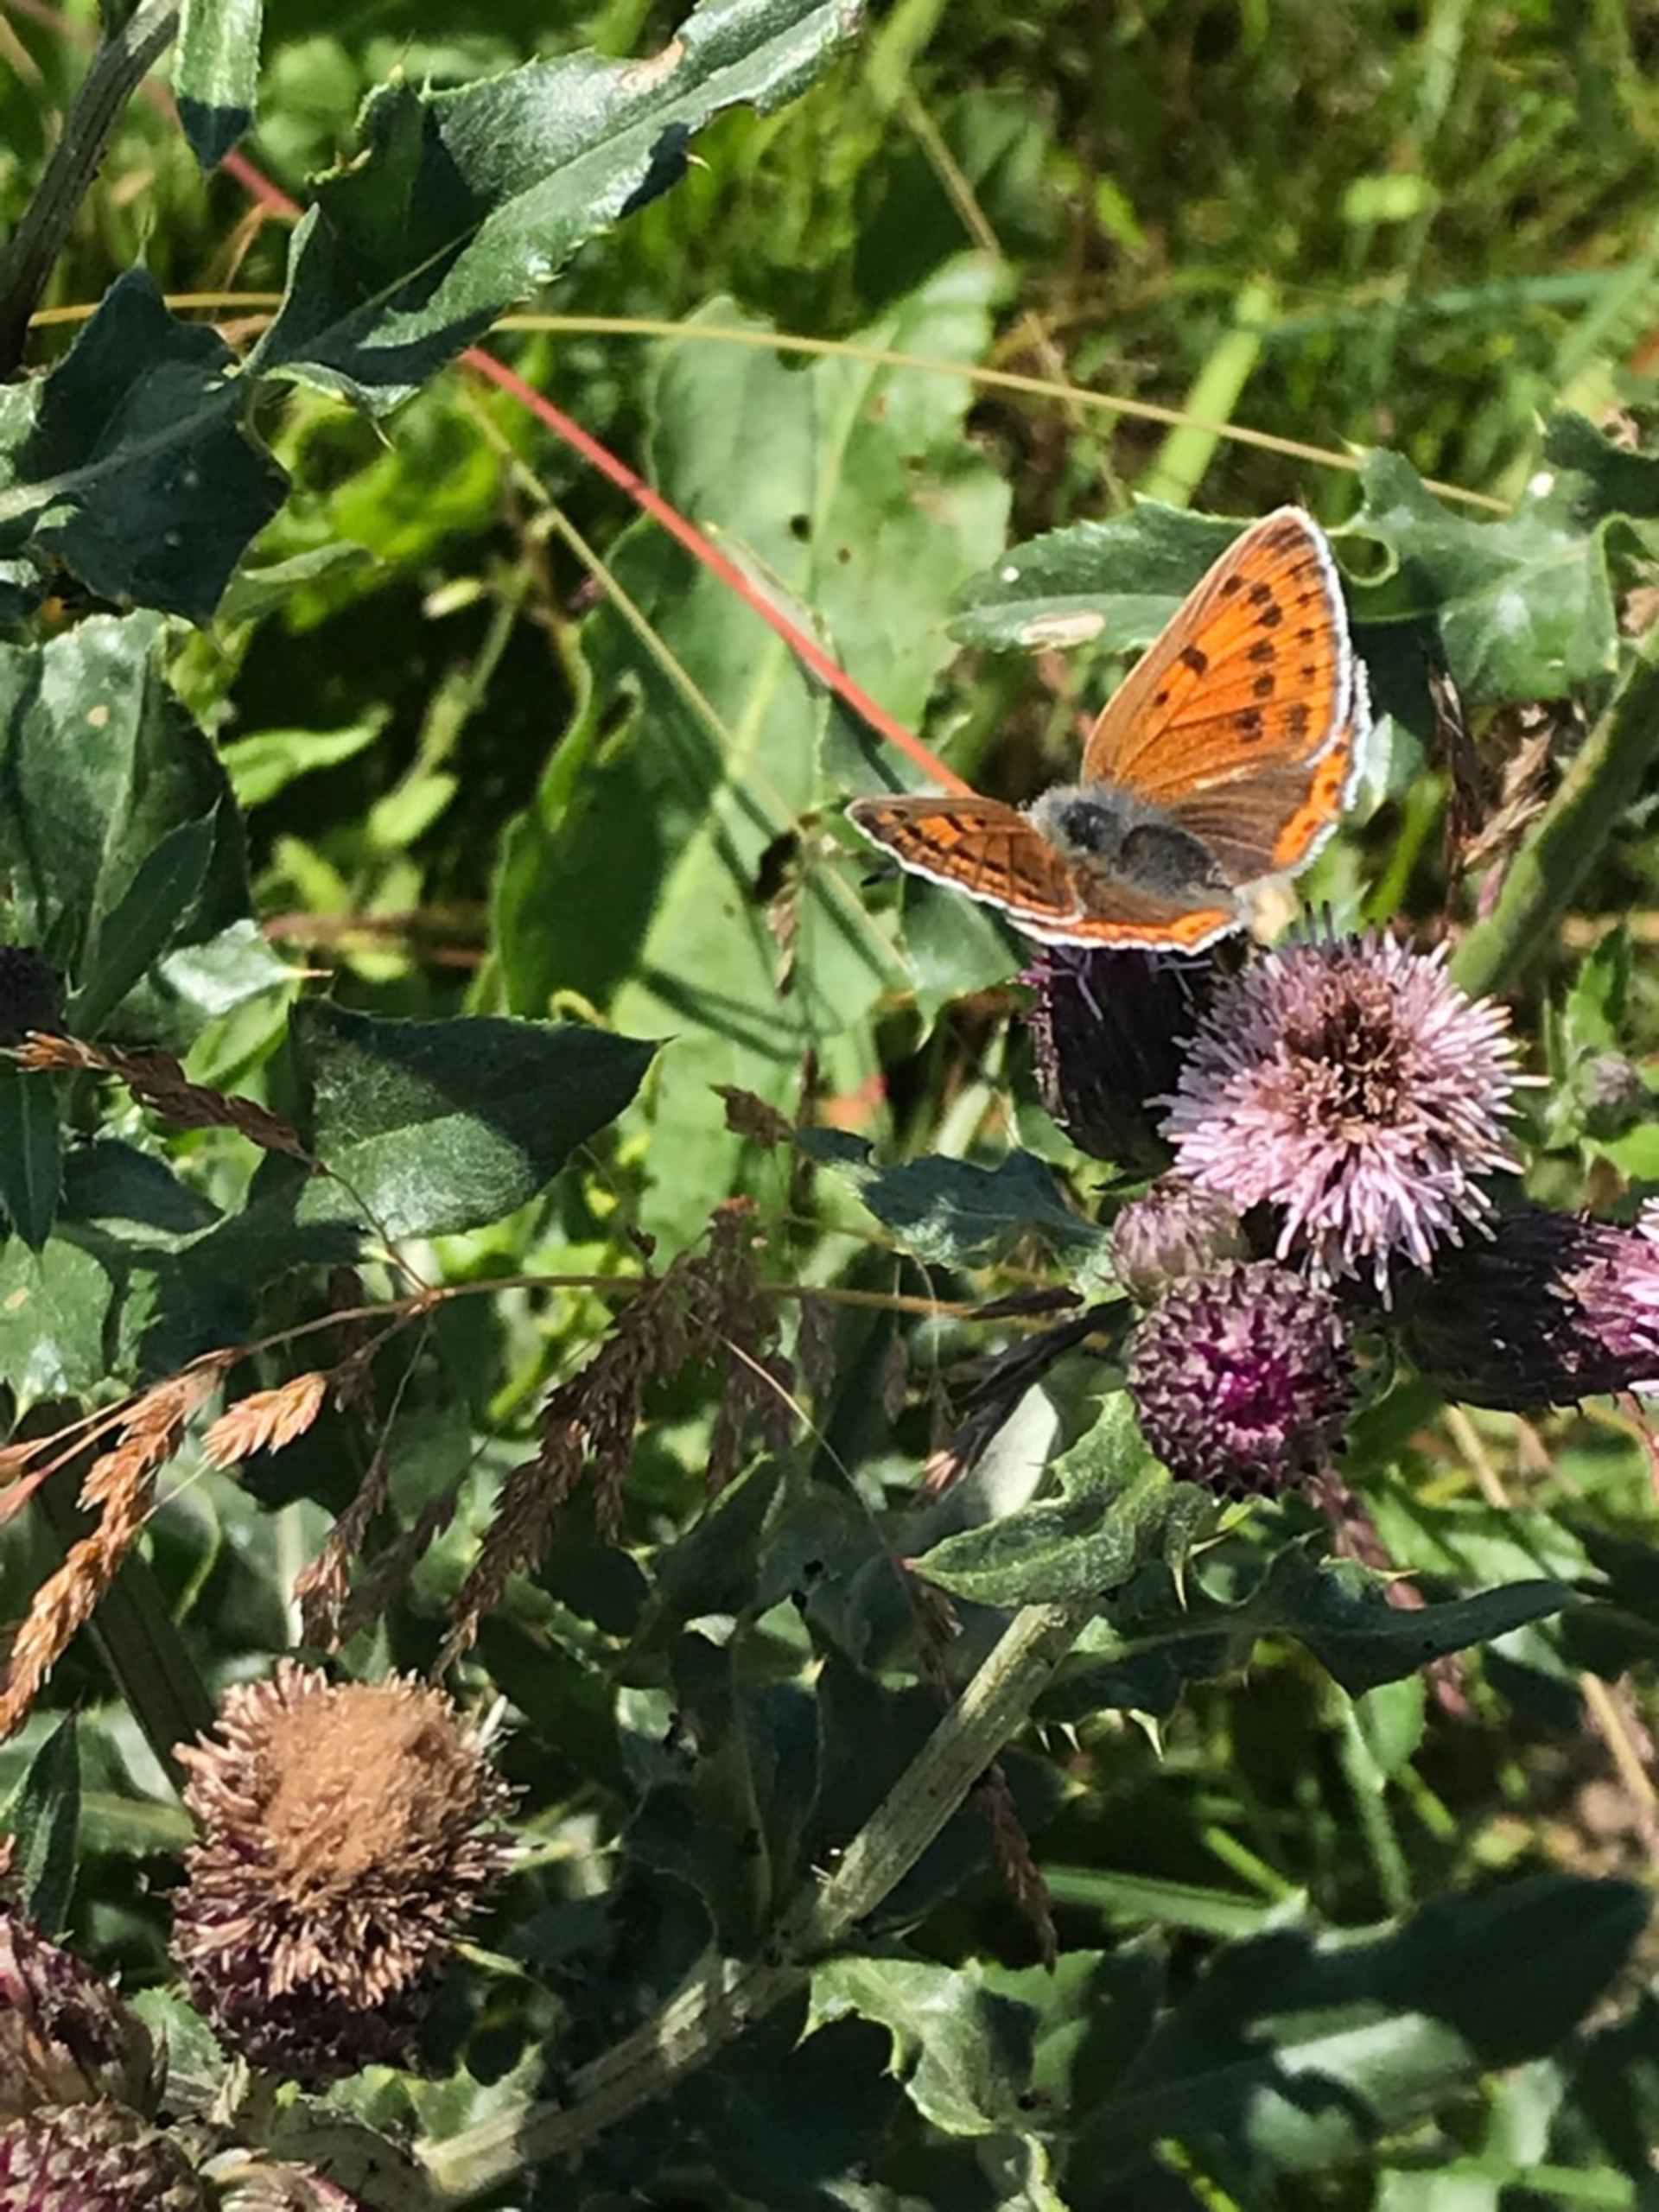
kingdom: Animalia
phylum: Arthropoda
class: Insecta
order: Lepidoptera
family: Lycaenidae
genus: Palaeochrysophanus
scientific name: Palaeochrysophanus hippothoe
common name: Violetrandet ildfugl
